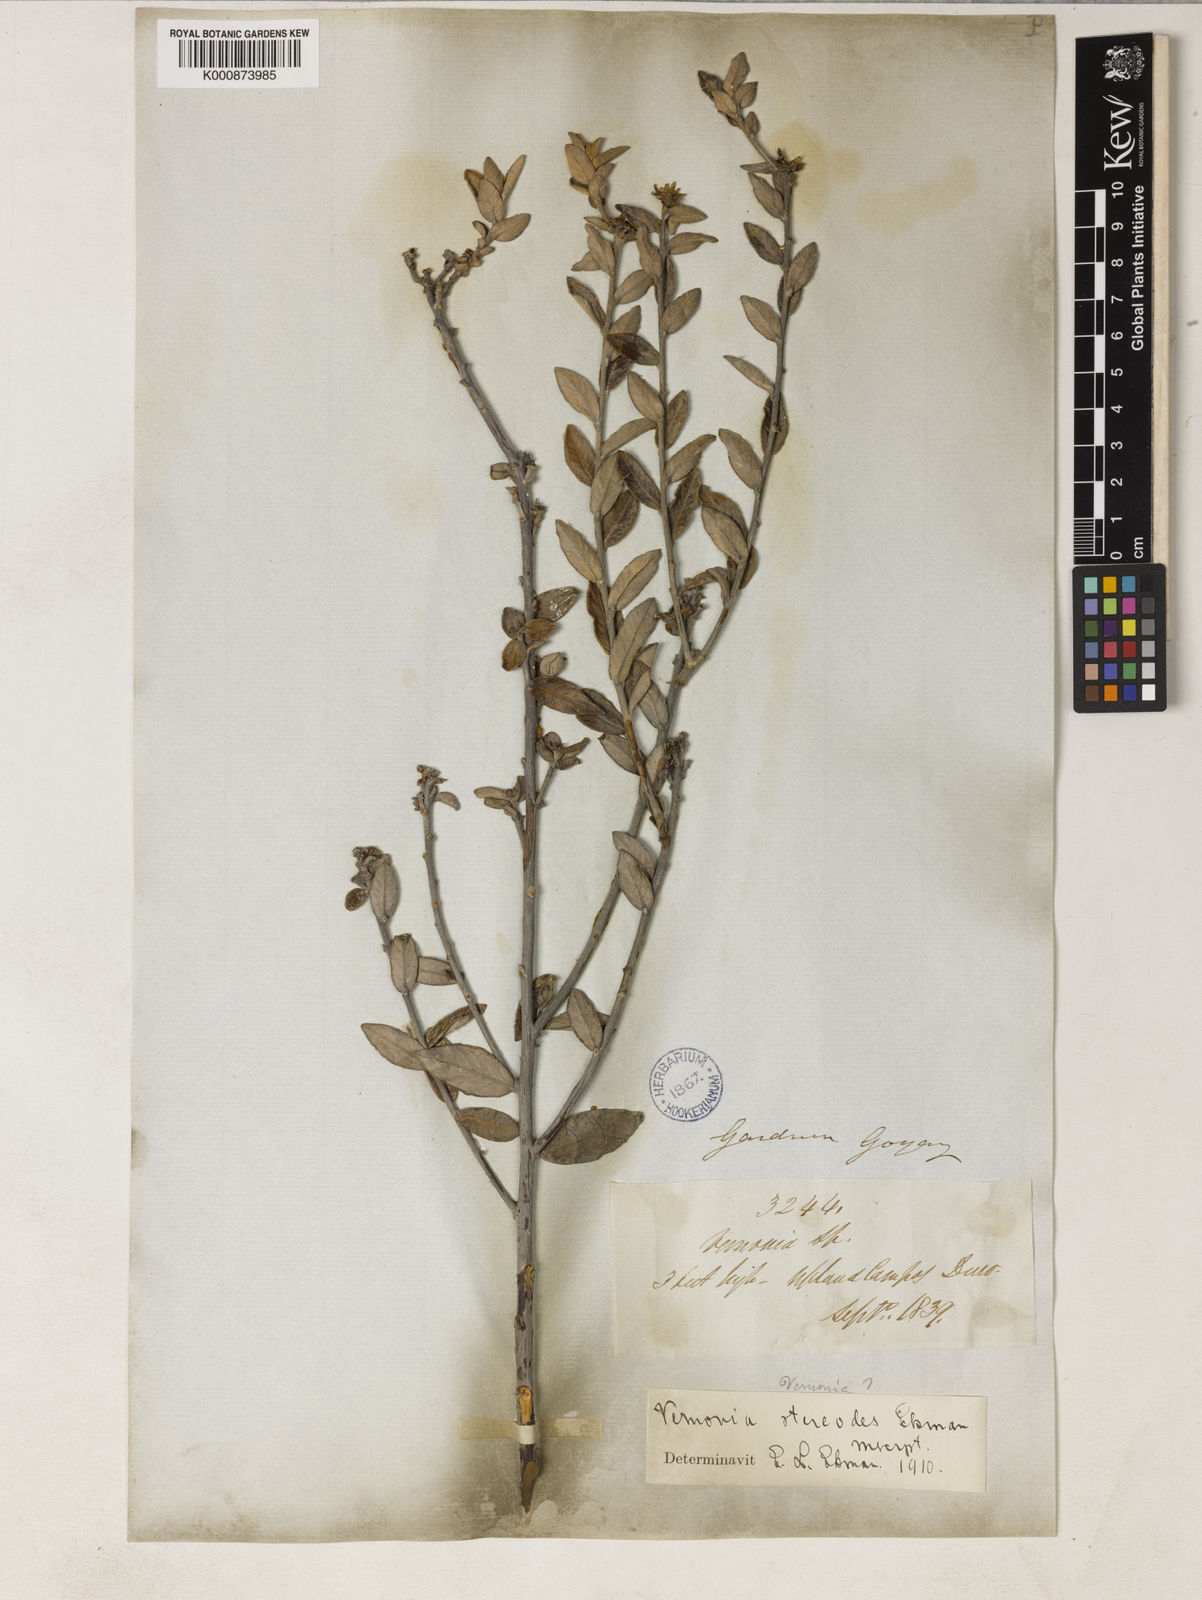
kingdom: Plantae
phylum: Tracheophyta
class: Magnoliopsida
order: Asterales
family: Asteraceae
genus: Vernonia
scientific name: Vernonia
